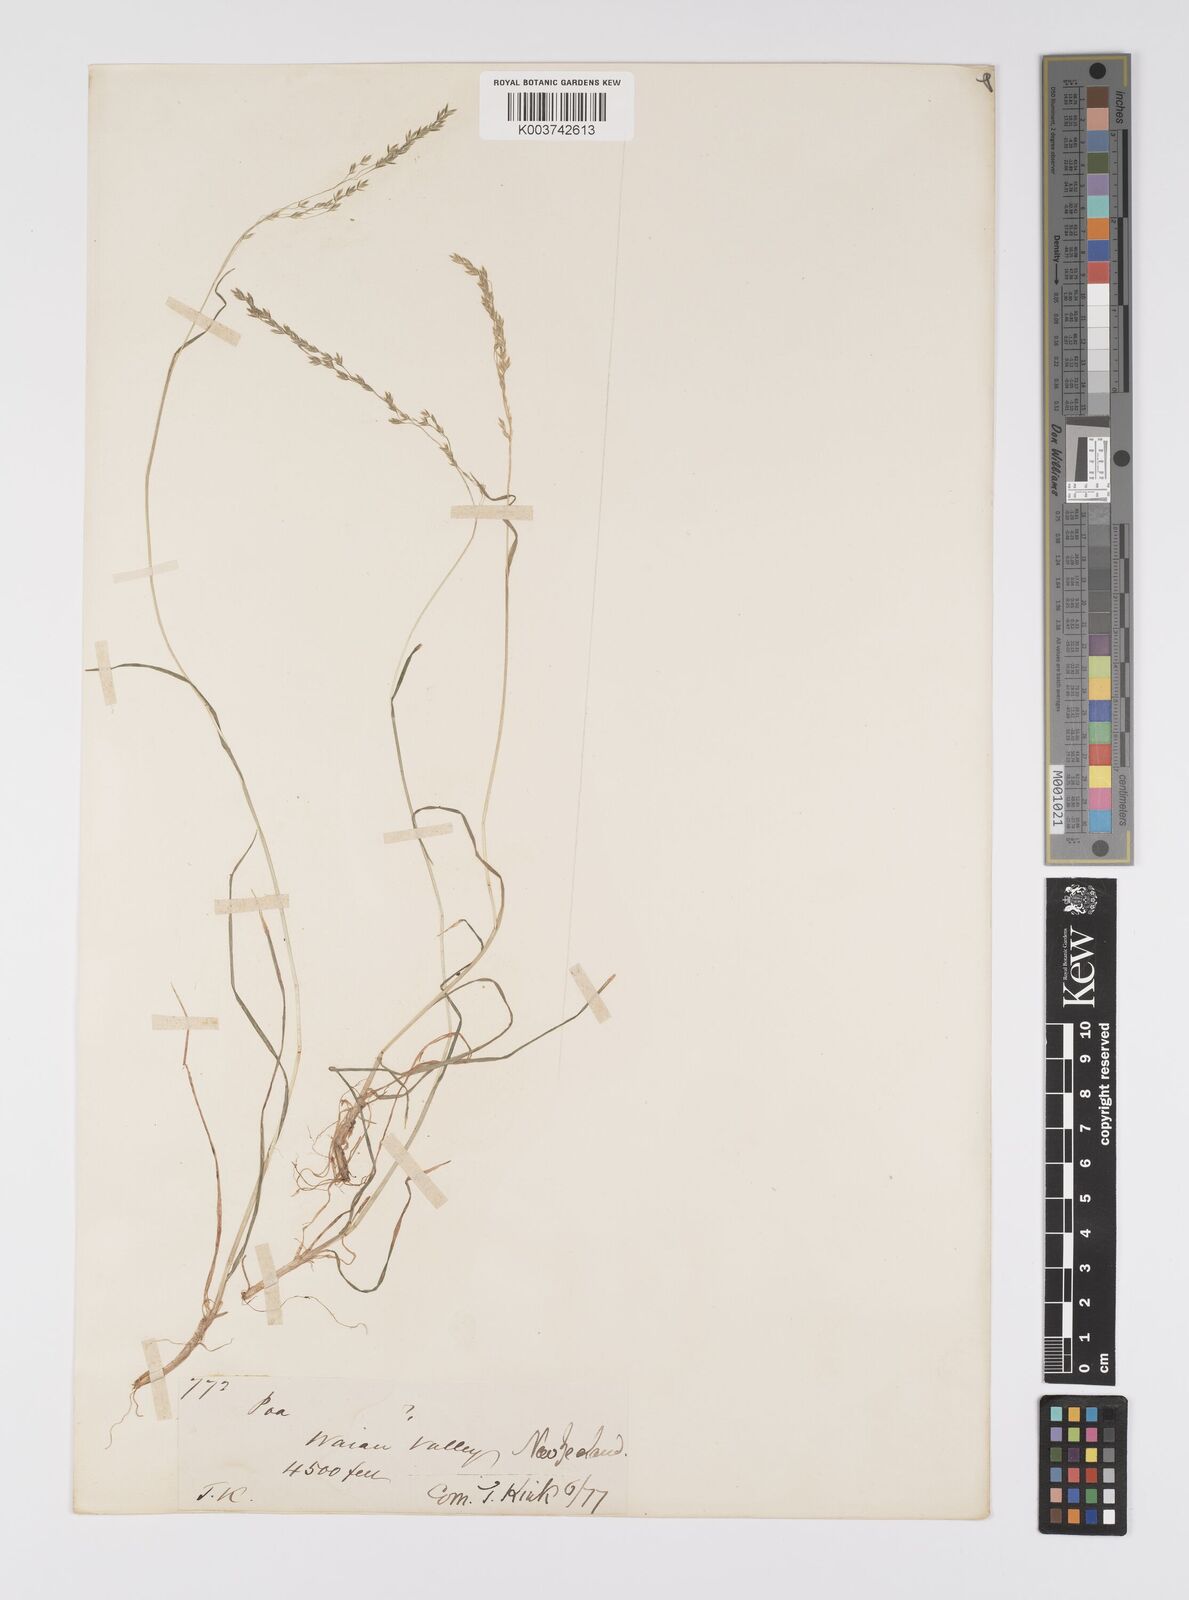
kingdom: Plantae
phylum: Tracheophyta
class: Liliopsida
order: Poales
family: Poaceae
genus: Poa
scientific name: Poa pusilla
